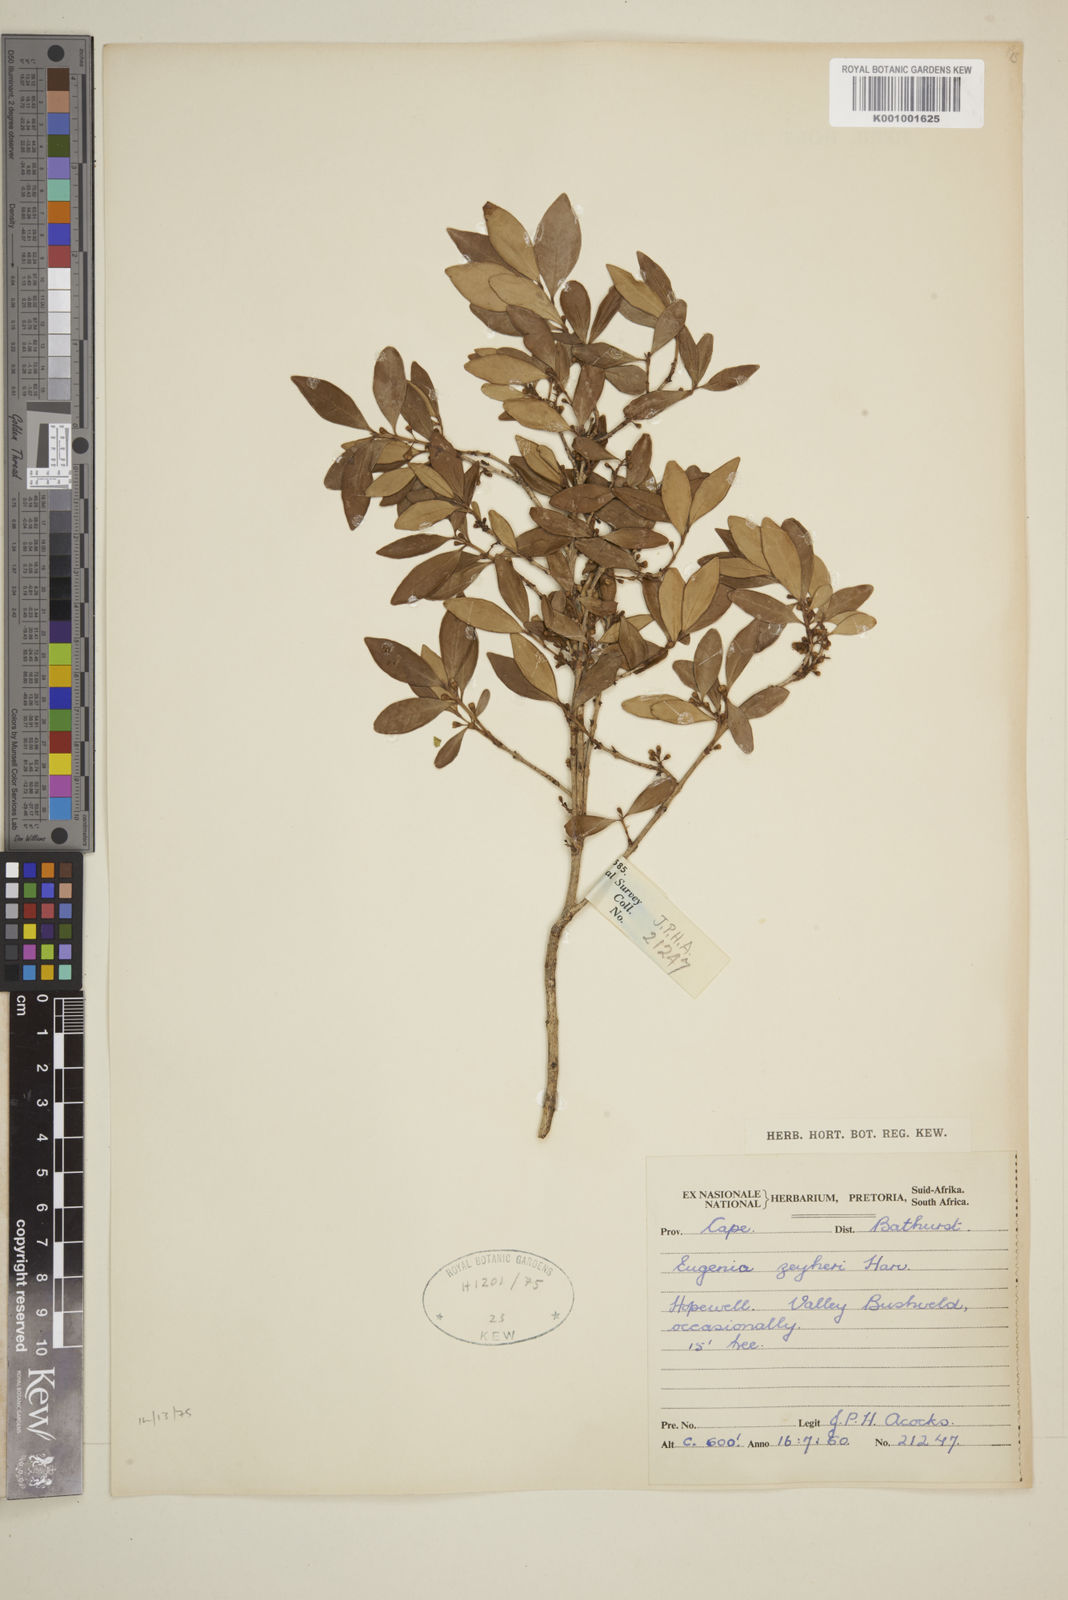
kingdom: Plantae
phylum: Tracheophyta
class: Magnoliopsida
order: Myrtales
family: Myrtaceae
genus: Eugenia
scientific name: Eugenia zeyheri
